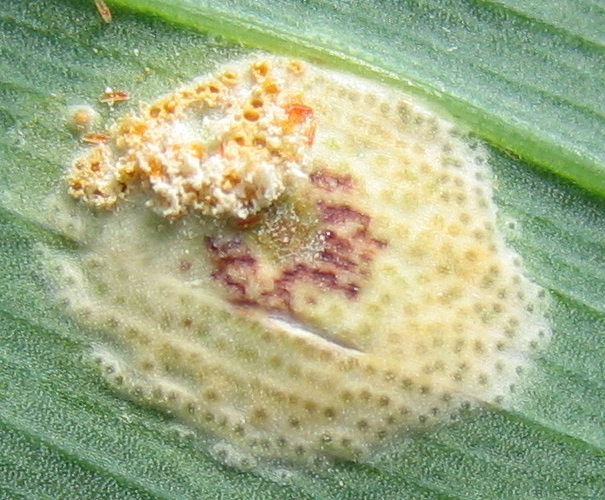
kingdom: Fungi
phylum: Basidiomycota
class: Pucciniomycetes
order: Pucciniales
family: Pucciniaceae
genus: Puccinia
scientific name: Puccinia sessilis
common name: Arum rust
